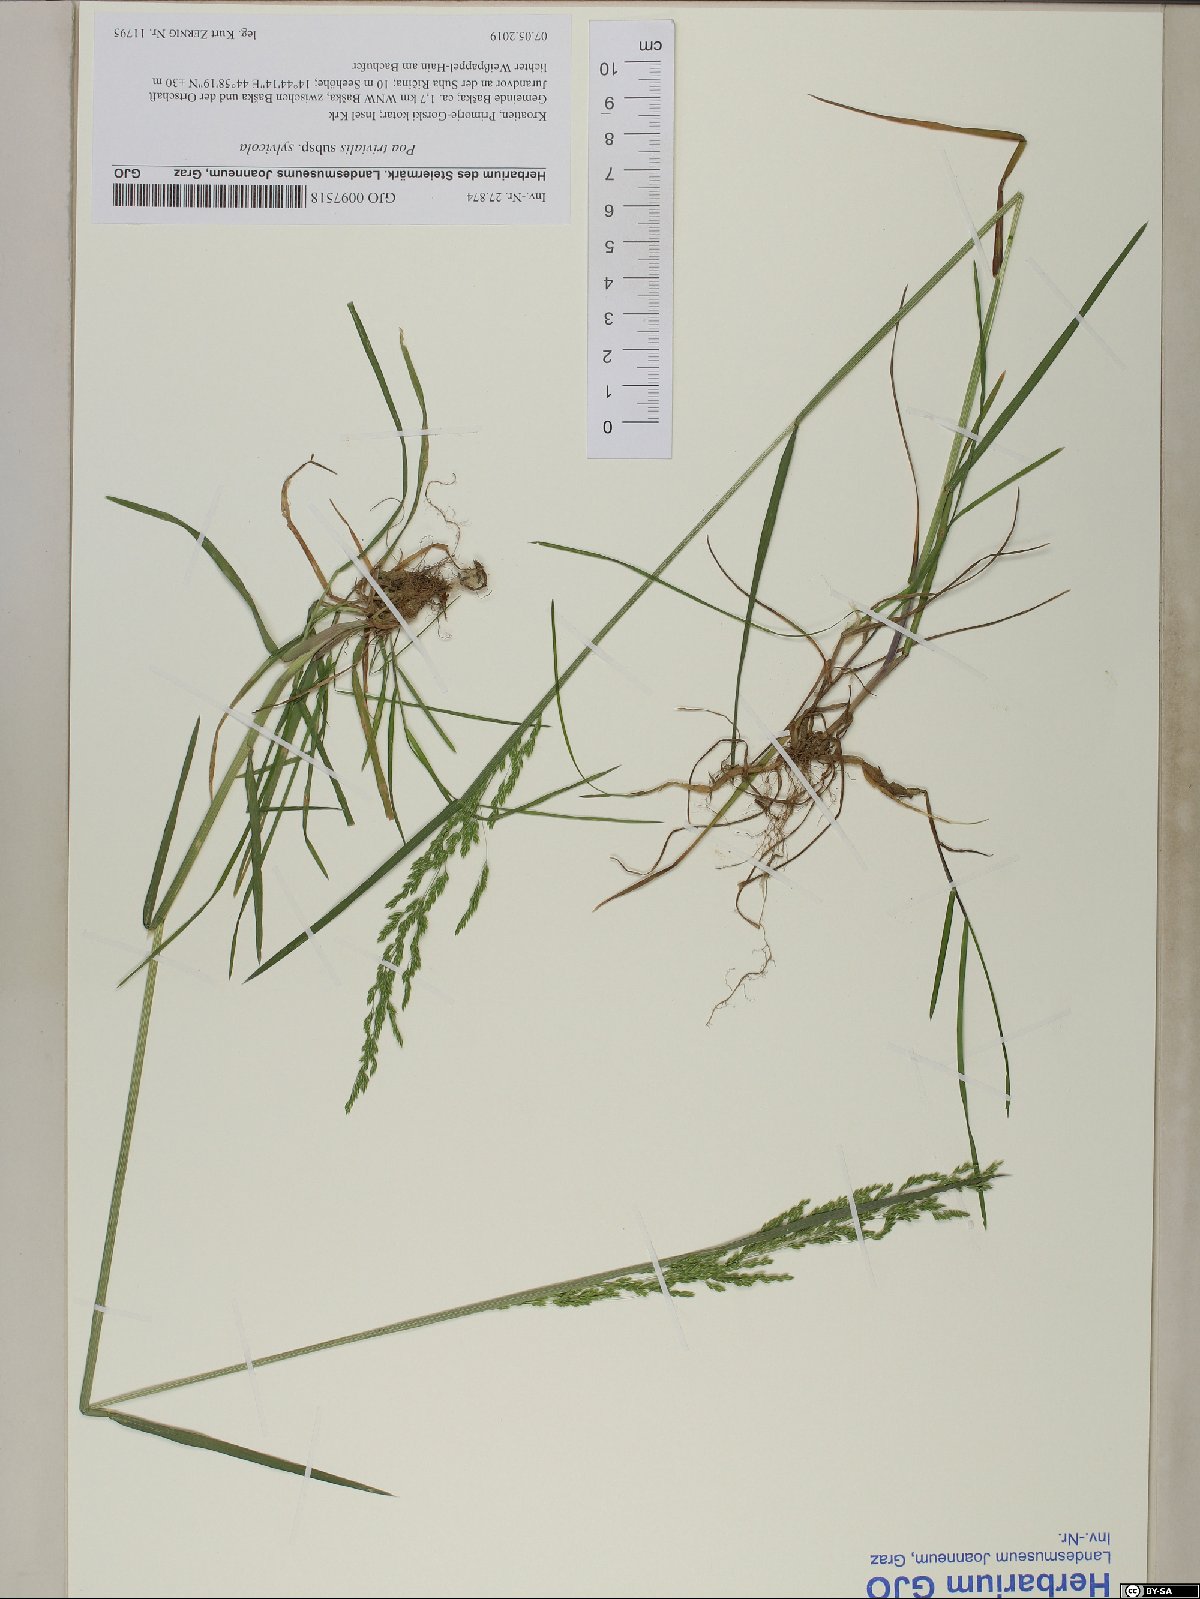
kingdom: Plantae
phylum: Tracheophyta
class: Liliopsida
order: Poales
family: Poaceae
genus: Poa
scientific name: Poa trivialis
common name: Rough bluegrass
